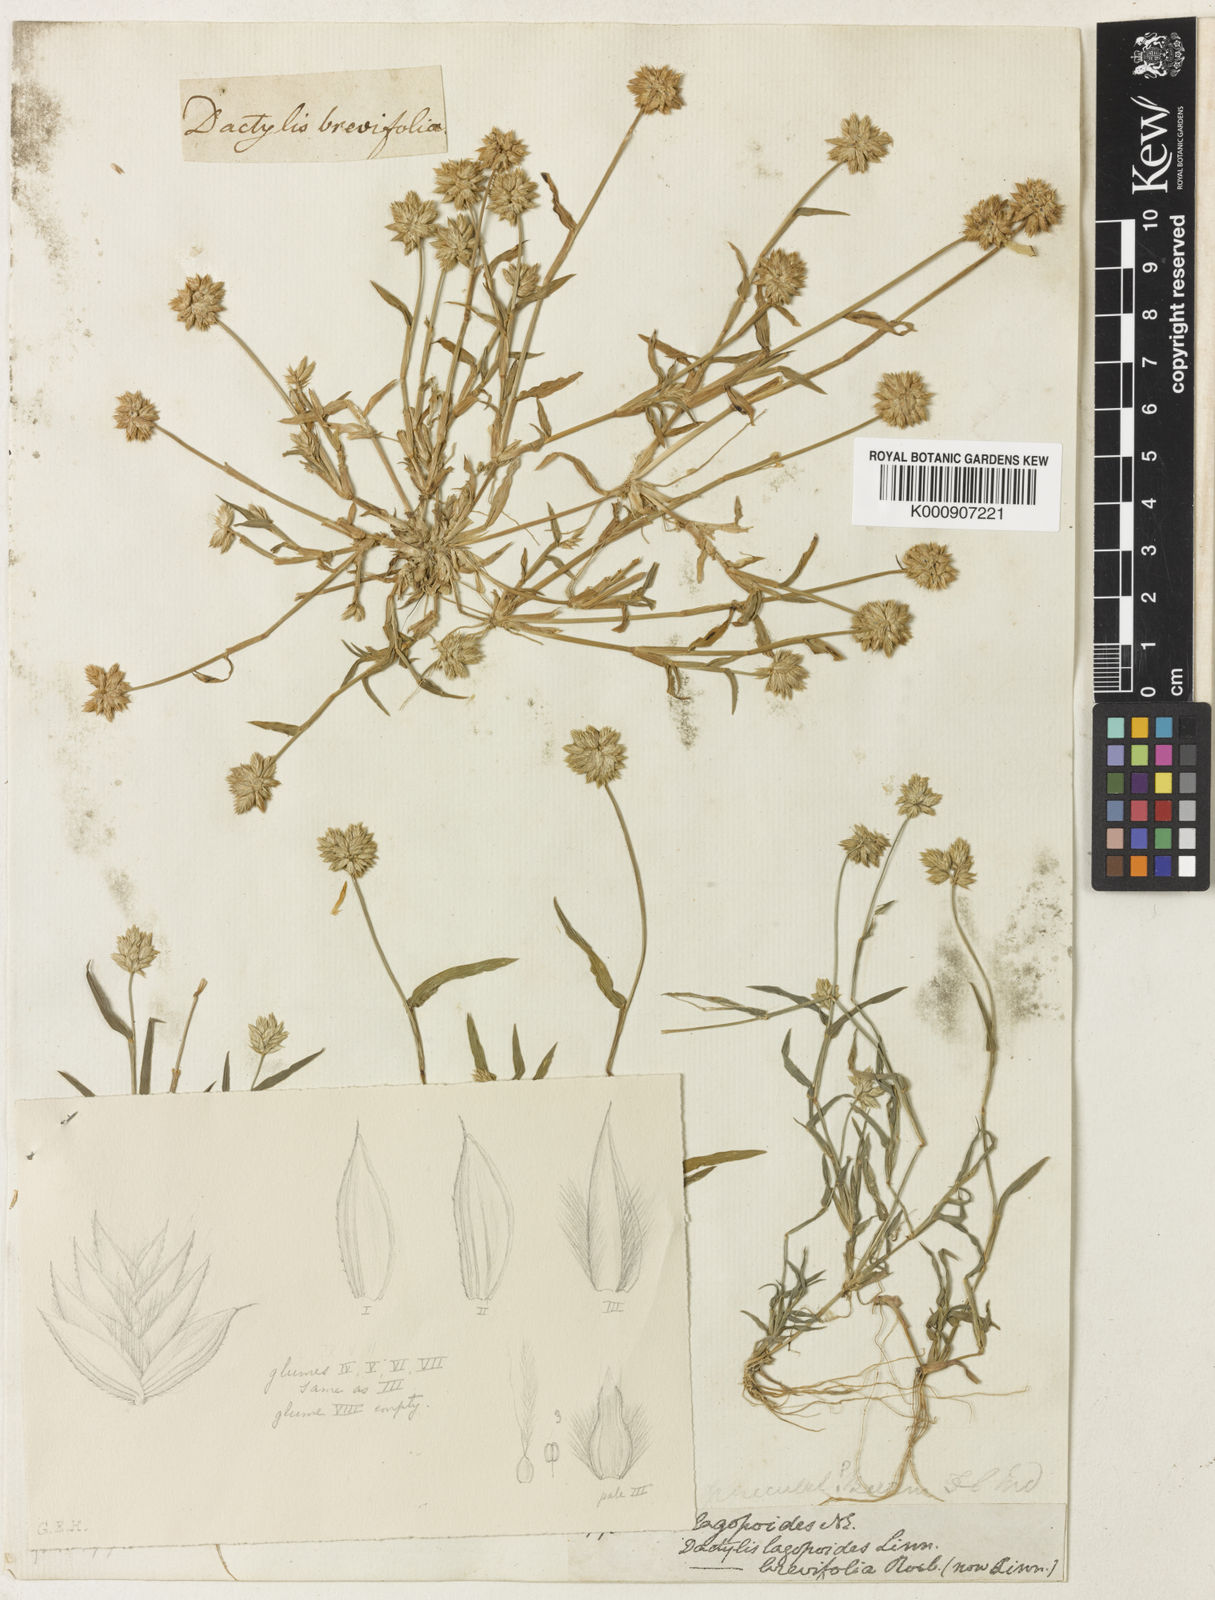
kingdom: Plantae
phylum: Tracheophyta
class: Liliopsida
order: Poales
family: Poaceae
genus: Coelachyrum
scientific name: Coelachyrum lagopoides
